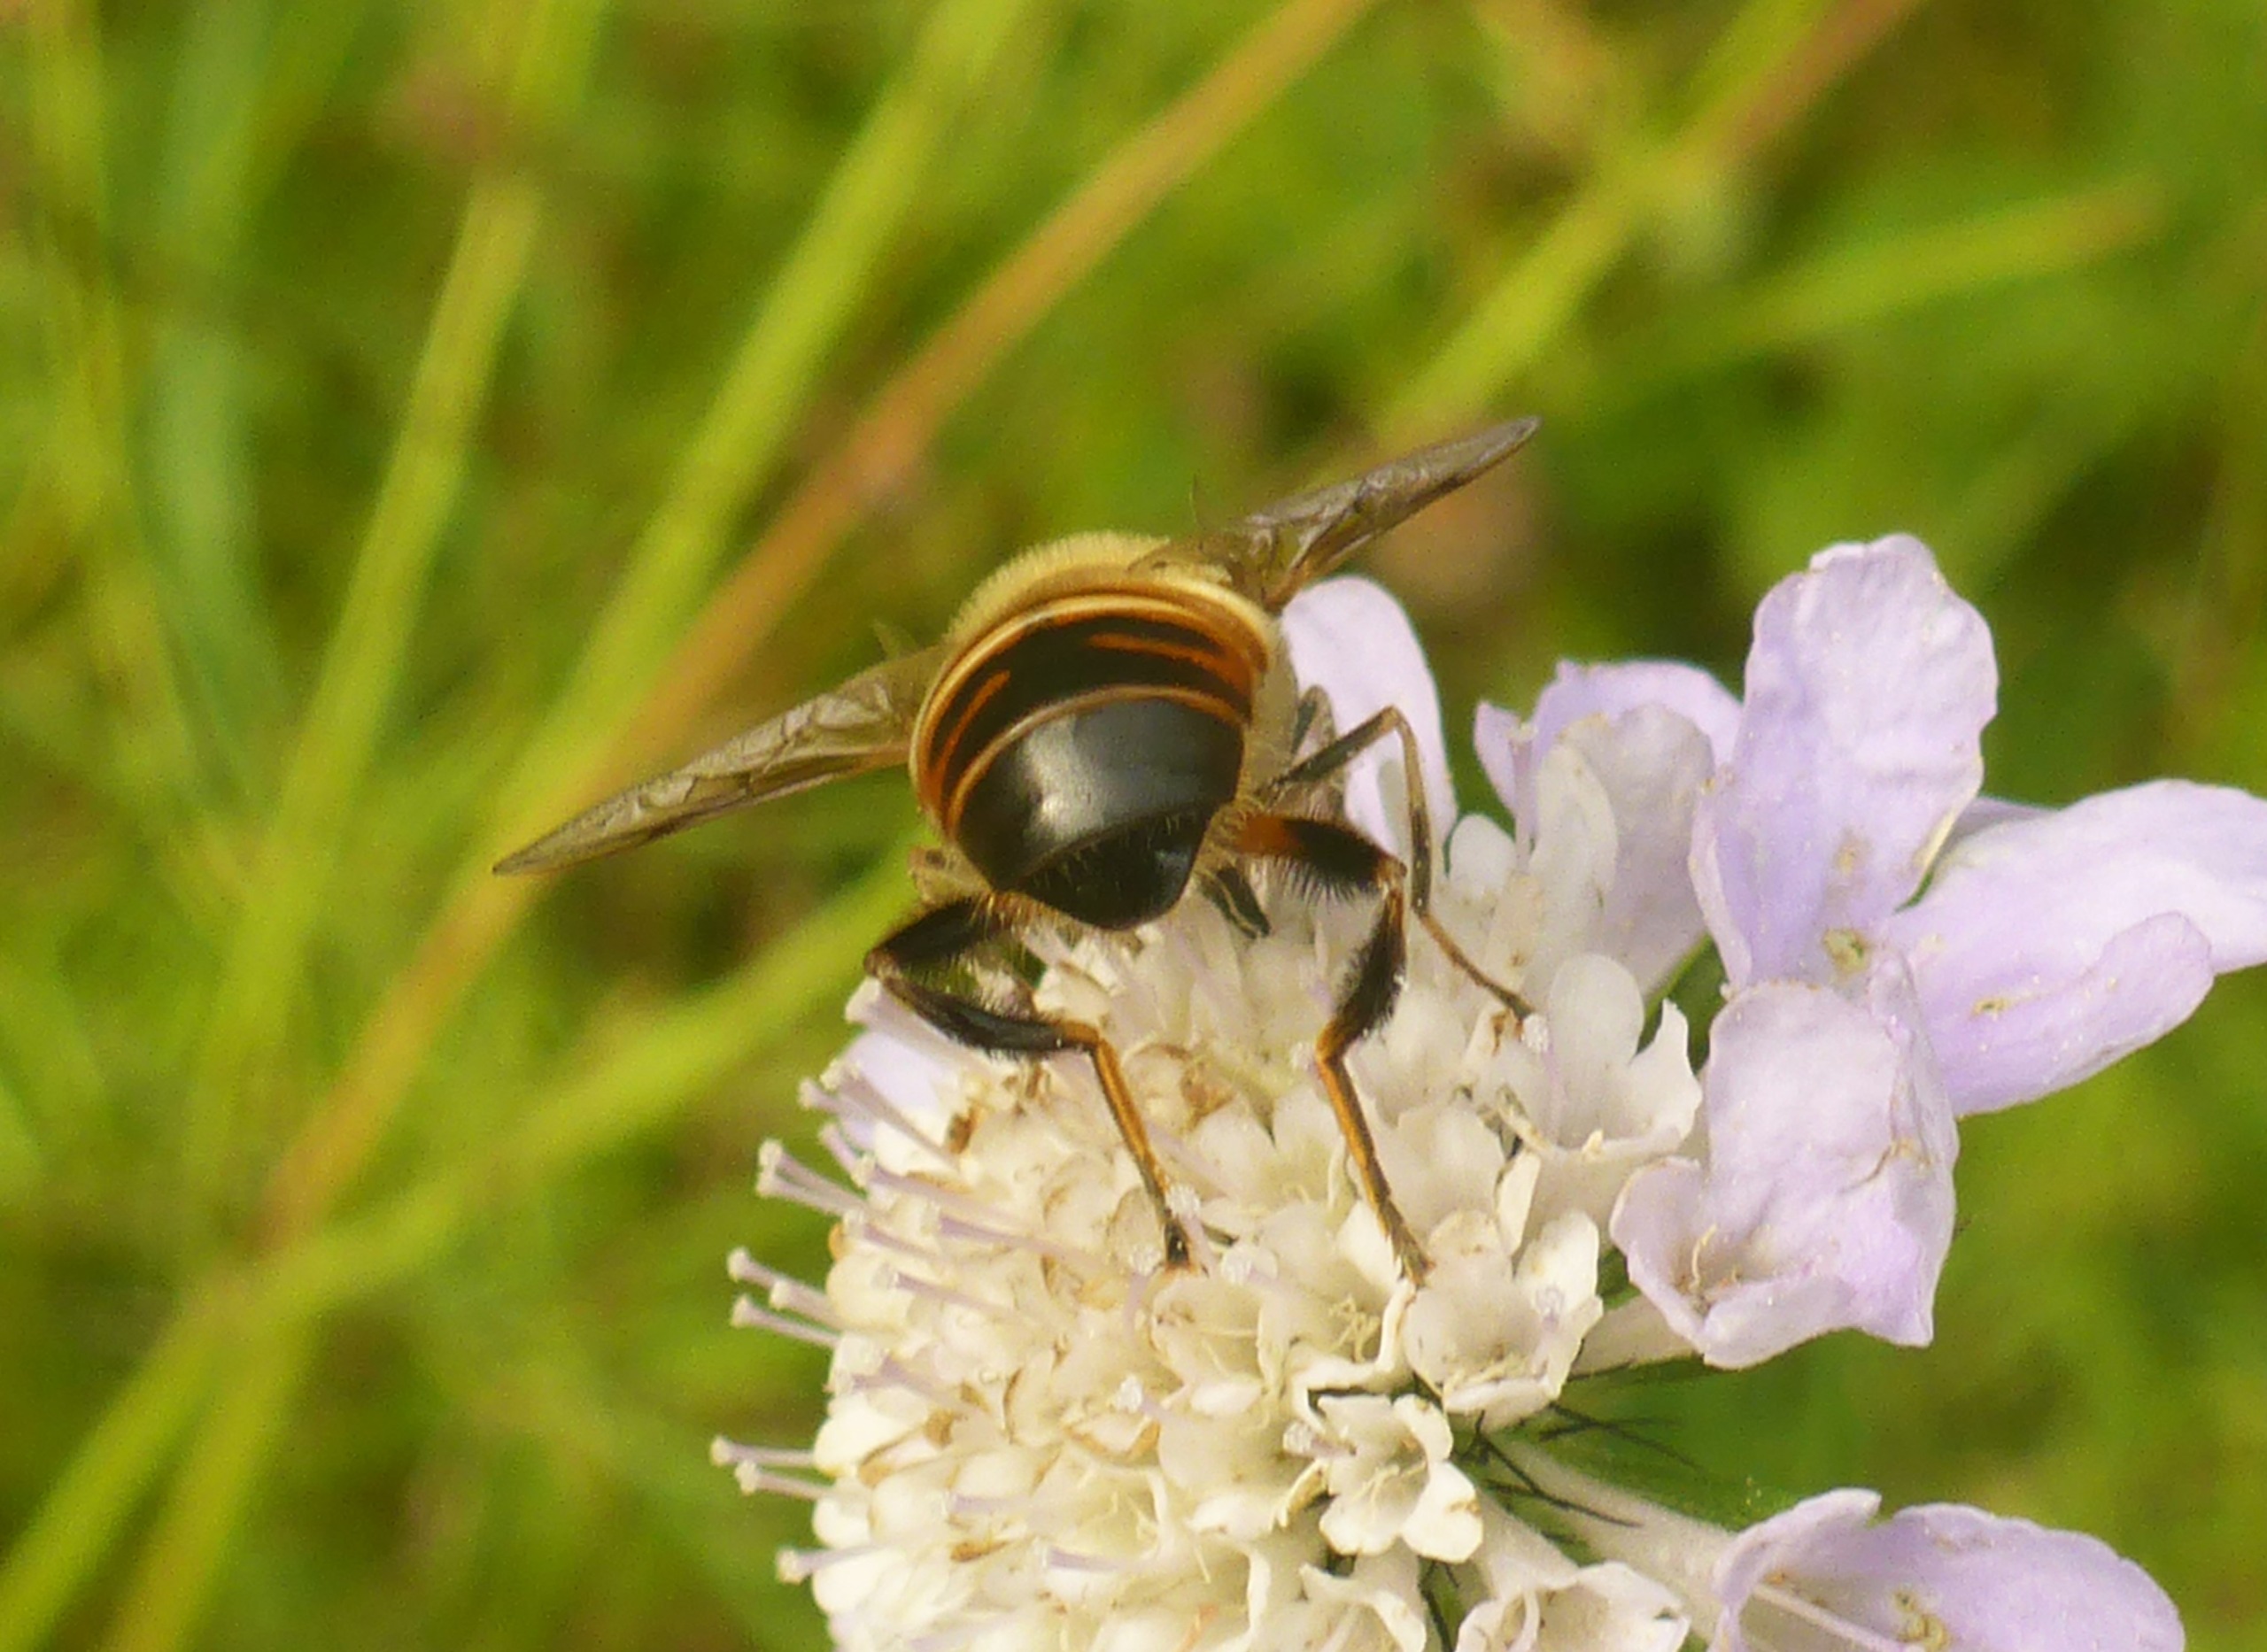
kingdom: Animalia
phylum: Arthropoda
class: Insecta
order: Diptera
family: Syrphidae
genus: Eristalis
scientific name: Eristalis tenax
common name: Droneflue
